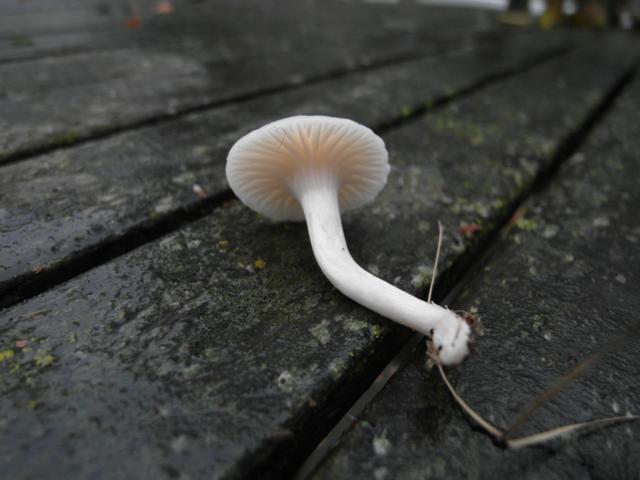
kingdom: Fungi
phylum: Basidiomycota
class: Agaricomycetes
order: Agaricales
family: Hygrophoraceae
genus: Cuphophyllus
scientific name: Cuphophyllus virgineus
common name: snehvid vokshat
